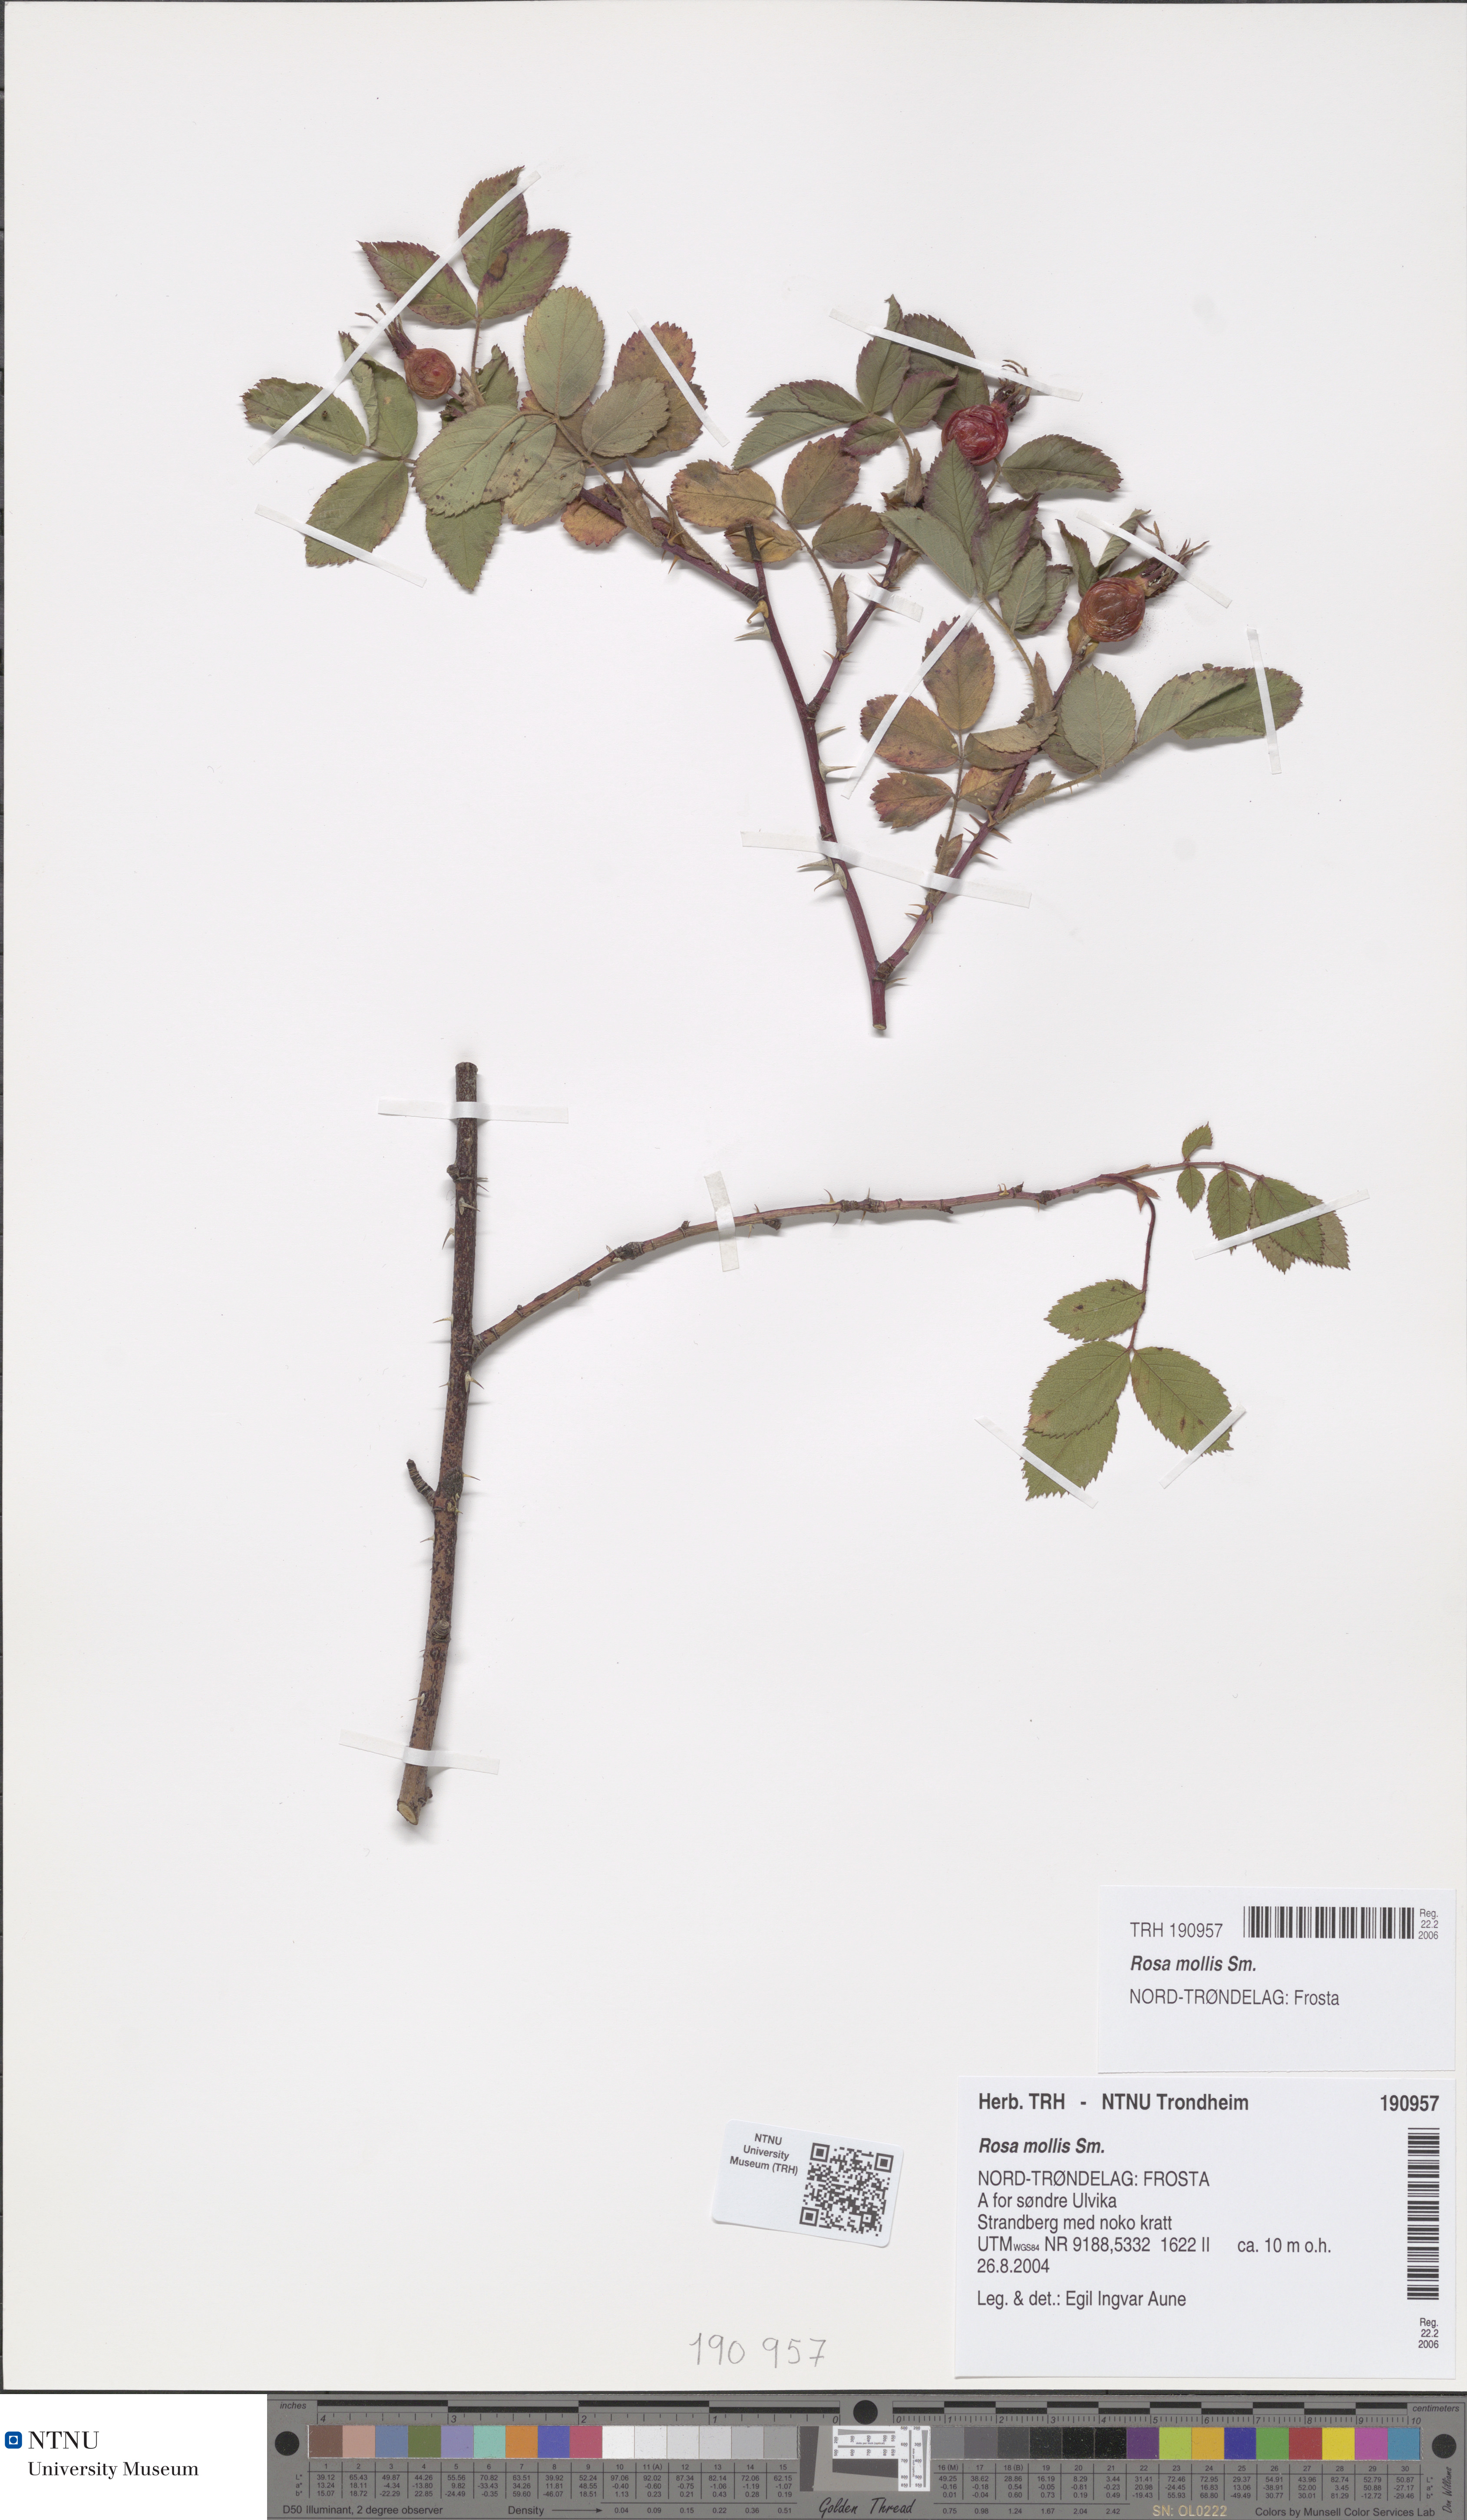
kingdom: Plantae
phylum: Tracheophyta
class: Magnoliopsida
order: Rosales
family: Rosaceae
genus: Rosa
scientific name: Rosa mollis
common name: Rose
